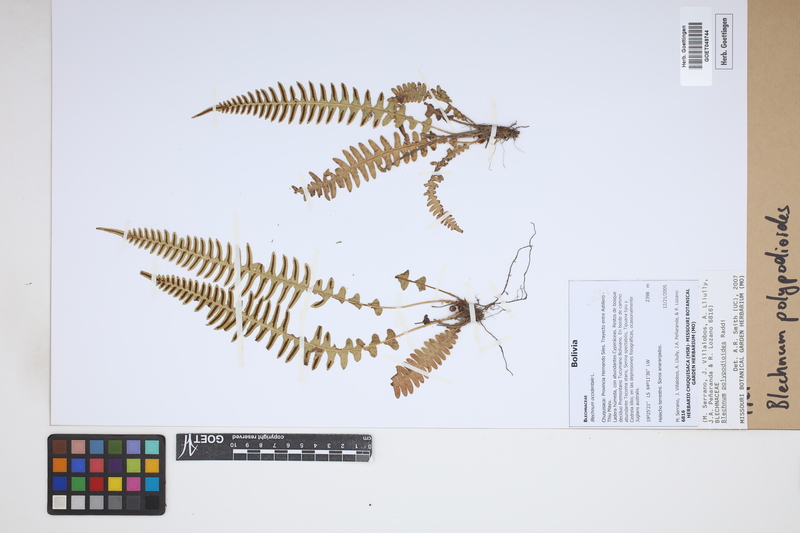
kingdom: Plantae
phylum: Tracheophyta
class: Polypodiopsida
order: Polypodiales
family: Blechnaceae
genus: Blechnum
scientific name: Blechnum polypodioides
